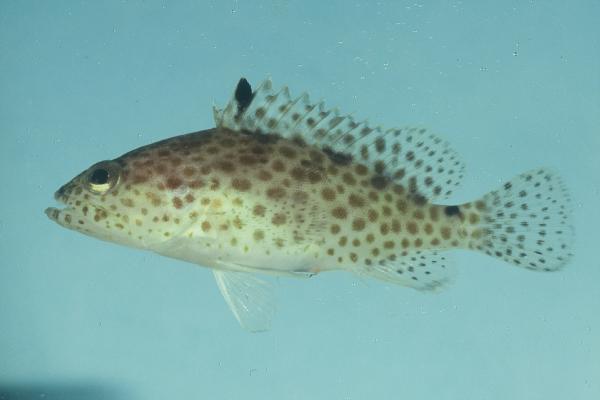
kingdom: Animalia
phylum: Chordata
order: Perciformes
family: Serranidae
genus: Epinephelus
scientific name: Epinephelus polyphekadion
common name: Camouflage grouper
